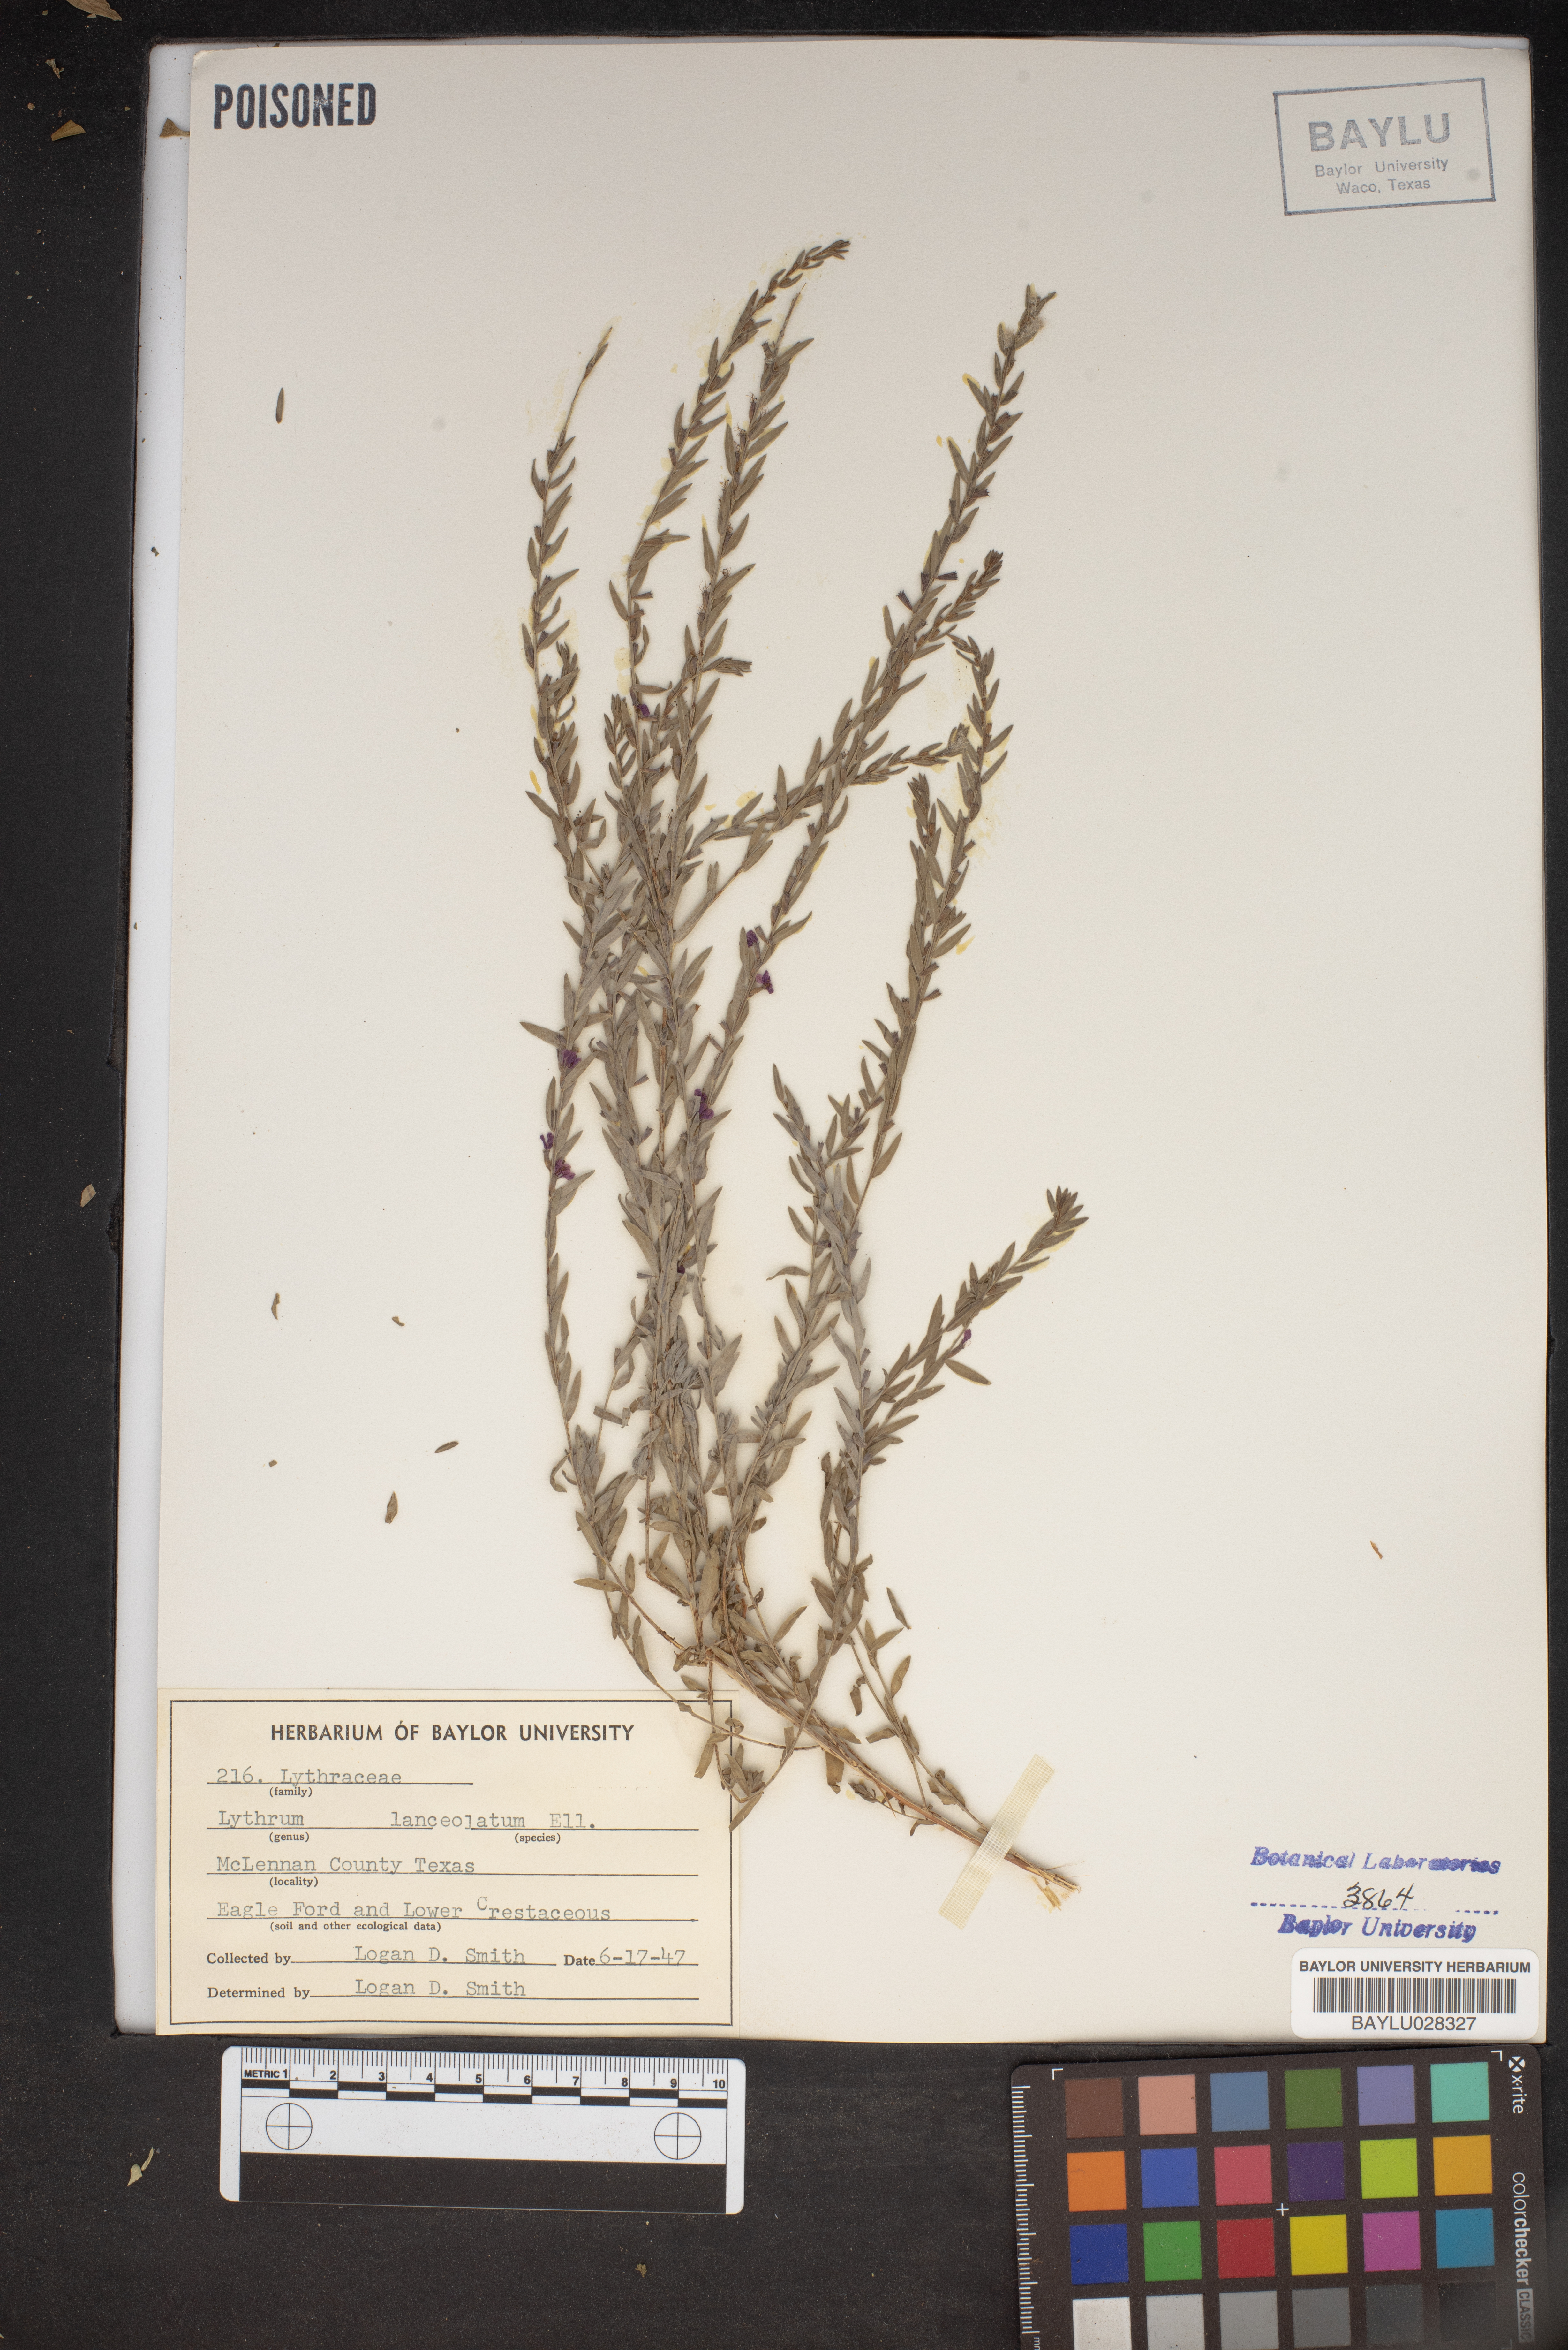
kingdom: Plantae
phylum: Tracheophyta
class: Magnoliopsida
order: Myrtales
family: Lythraceae
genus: Lythrum
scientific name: Lythrum alatum
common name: Winged loosestrife
